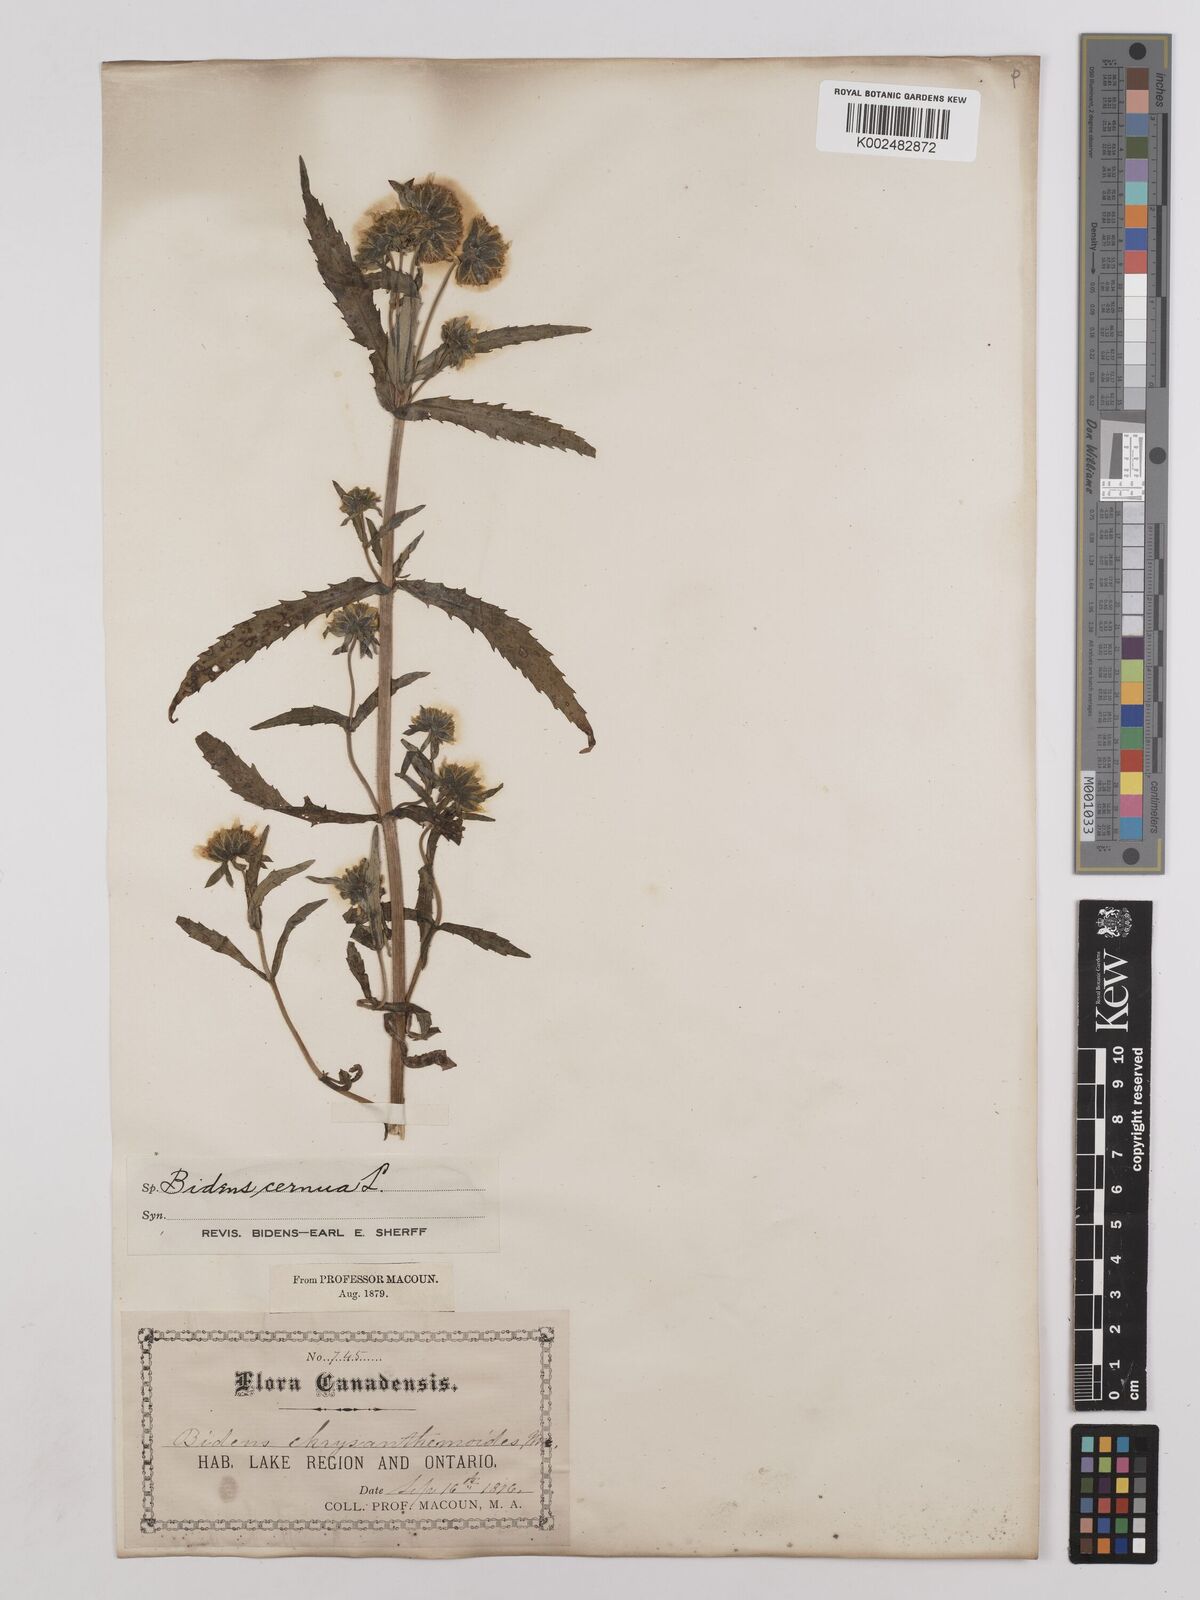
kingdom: Plantae
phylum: Tracheophyta
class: Magnoliopsida
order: Asterales
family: Asteraceae
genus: Bidens
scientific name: Bidens
